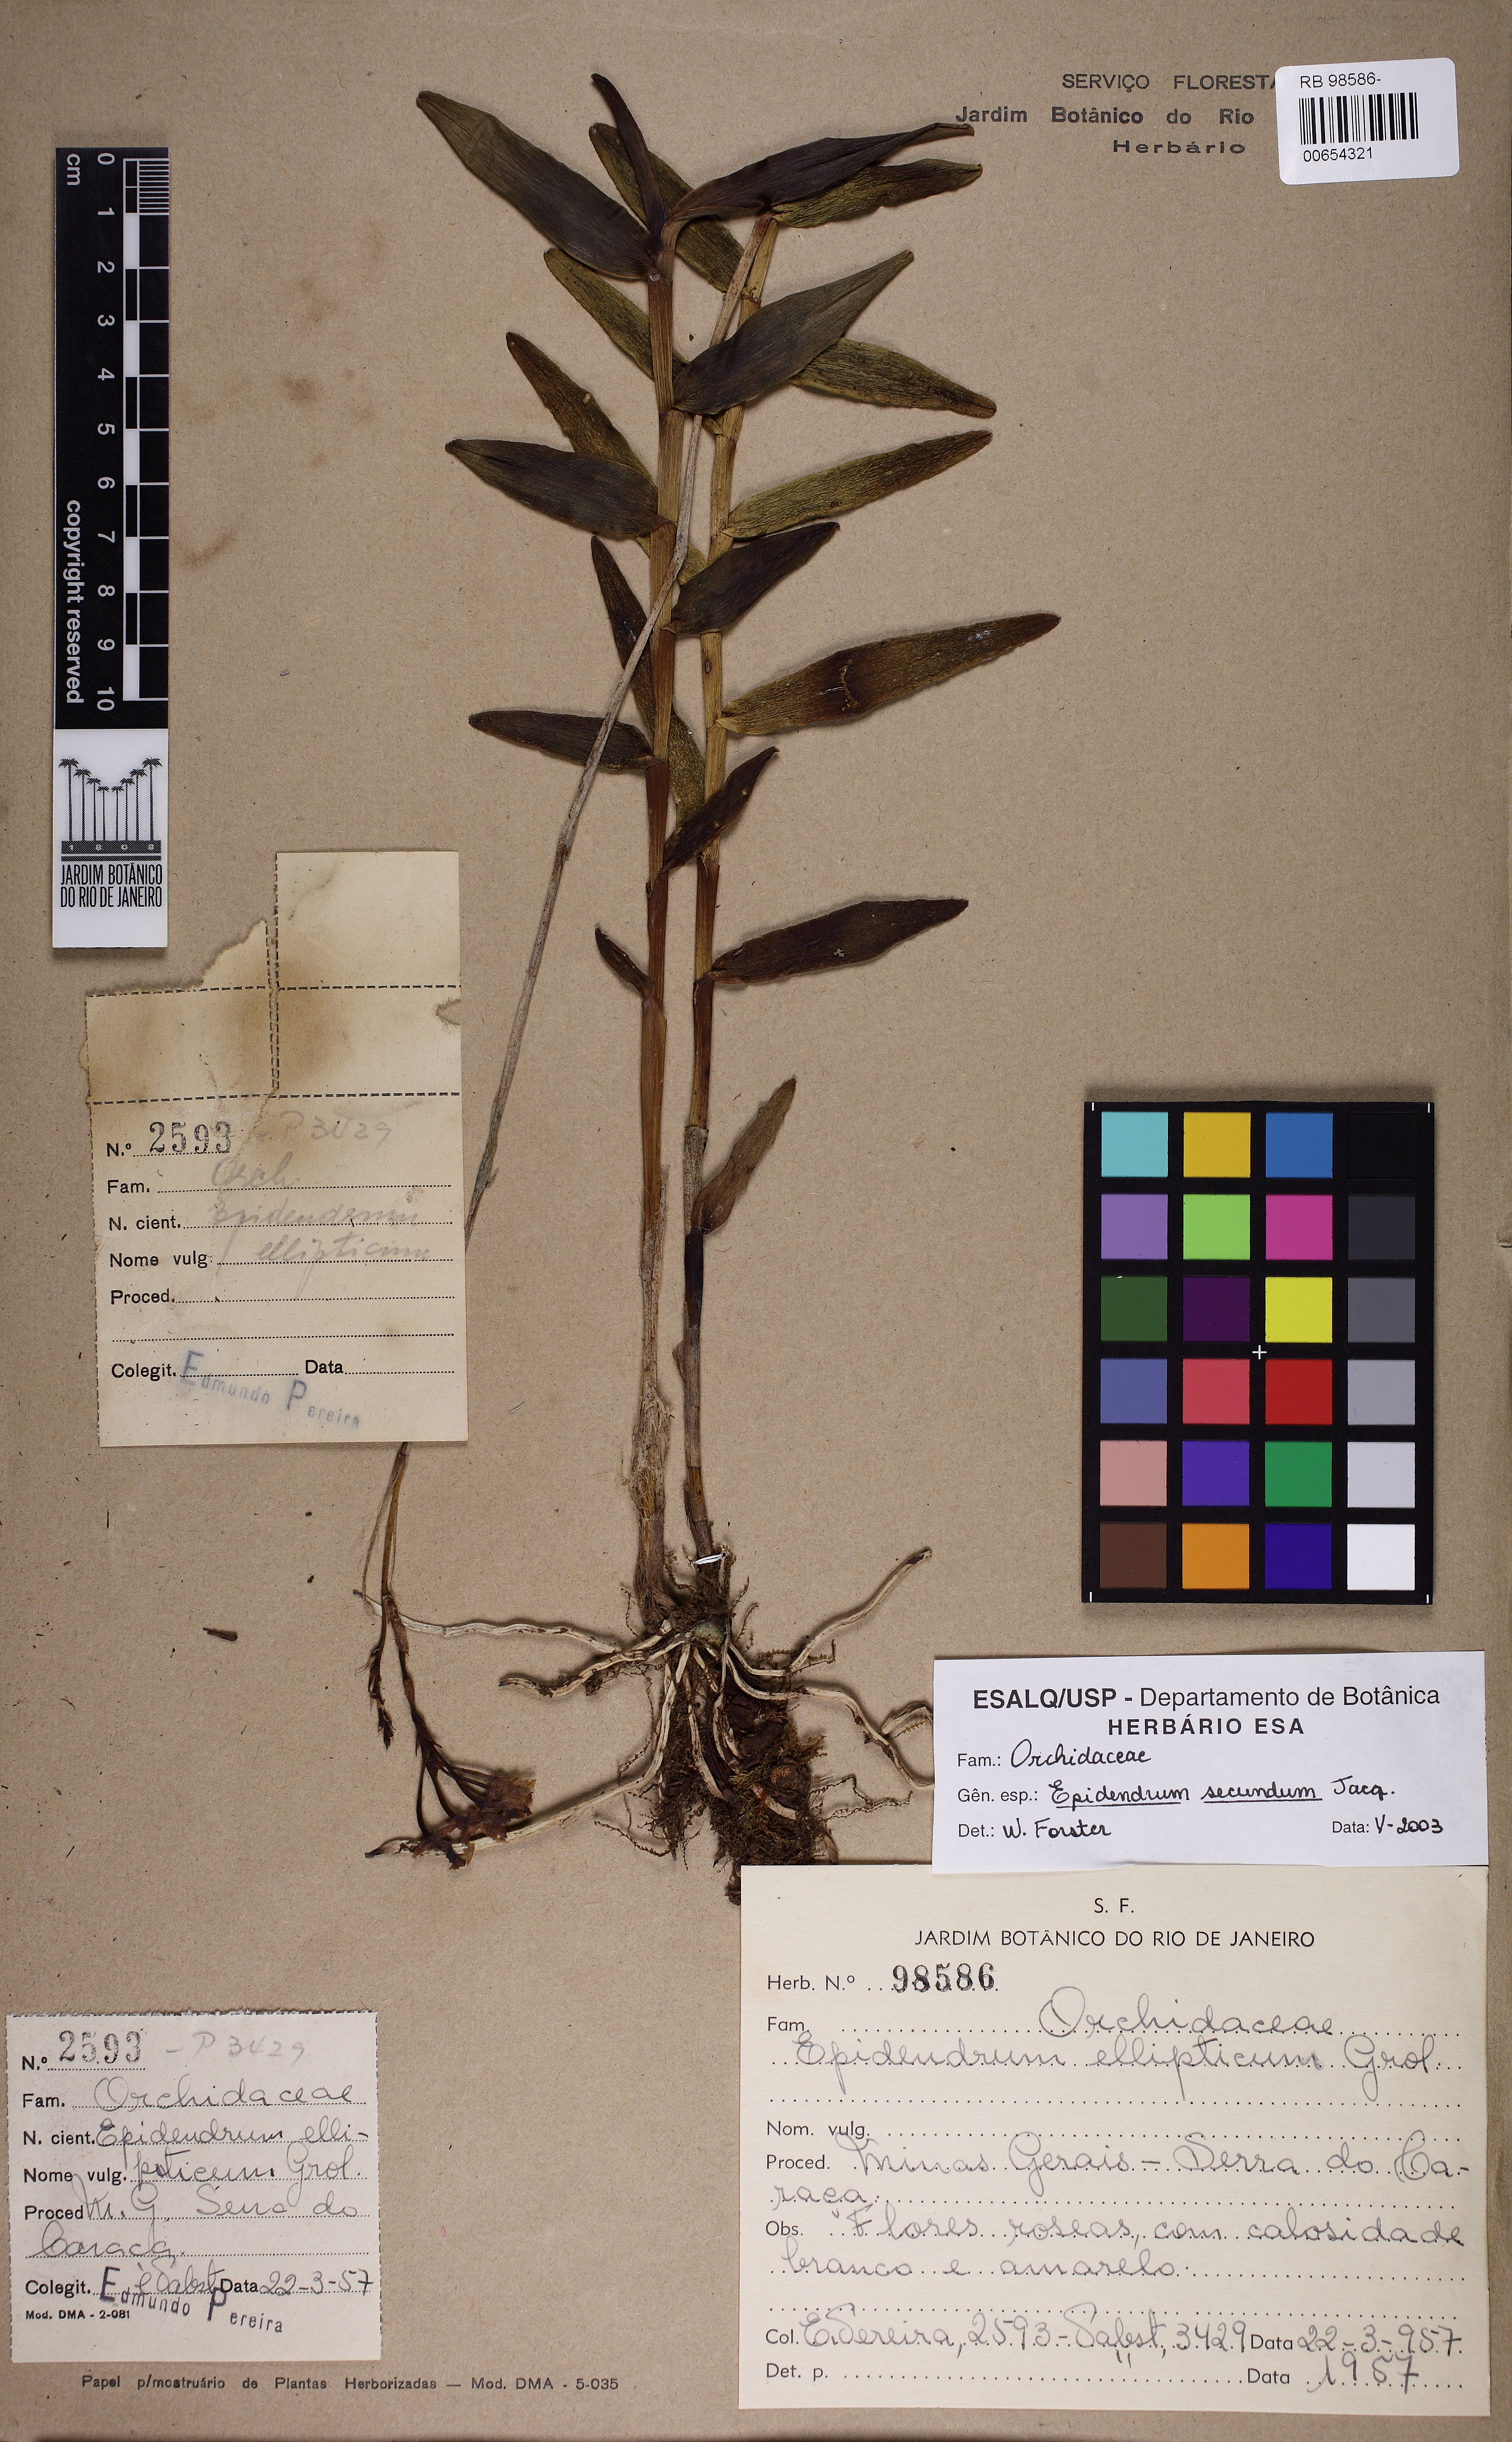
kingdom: Plantae
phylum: Tracheophyta
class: Liliopsida
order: Asparagales
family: Orchidaceae
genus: Epidendrum
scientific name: Epidendrum secundum
